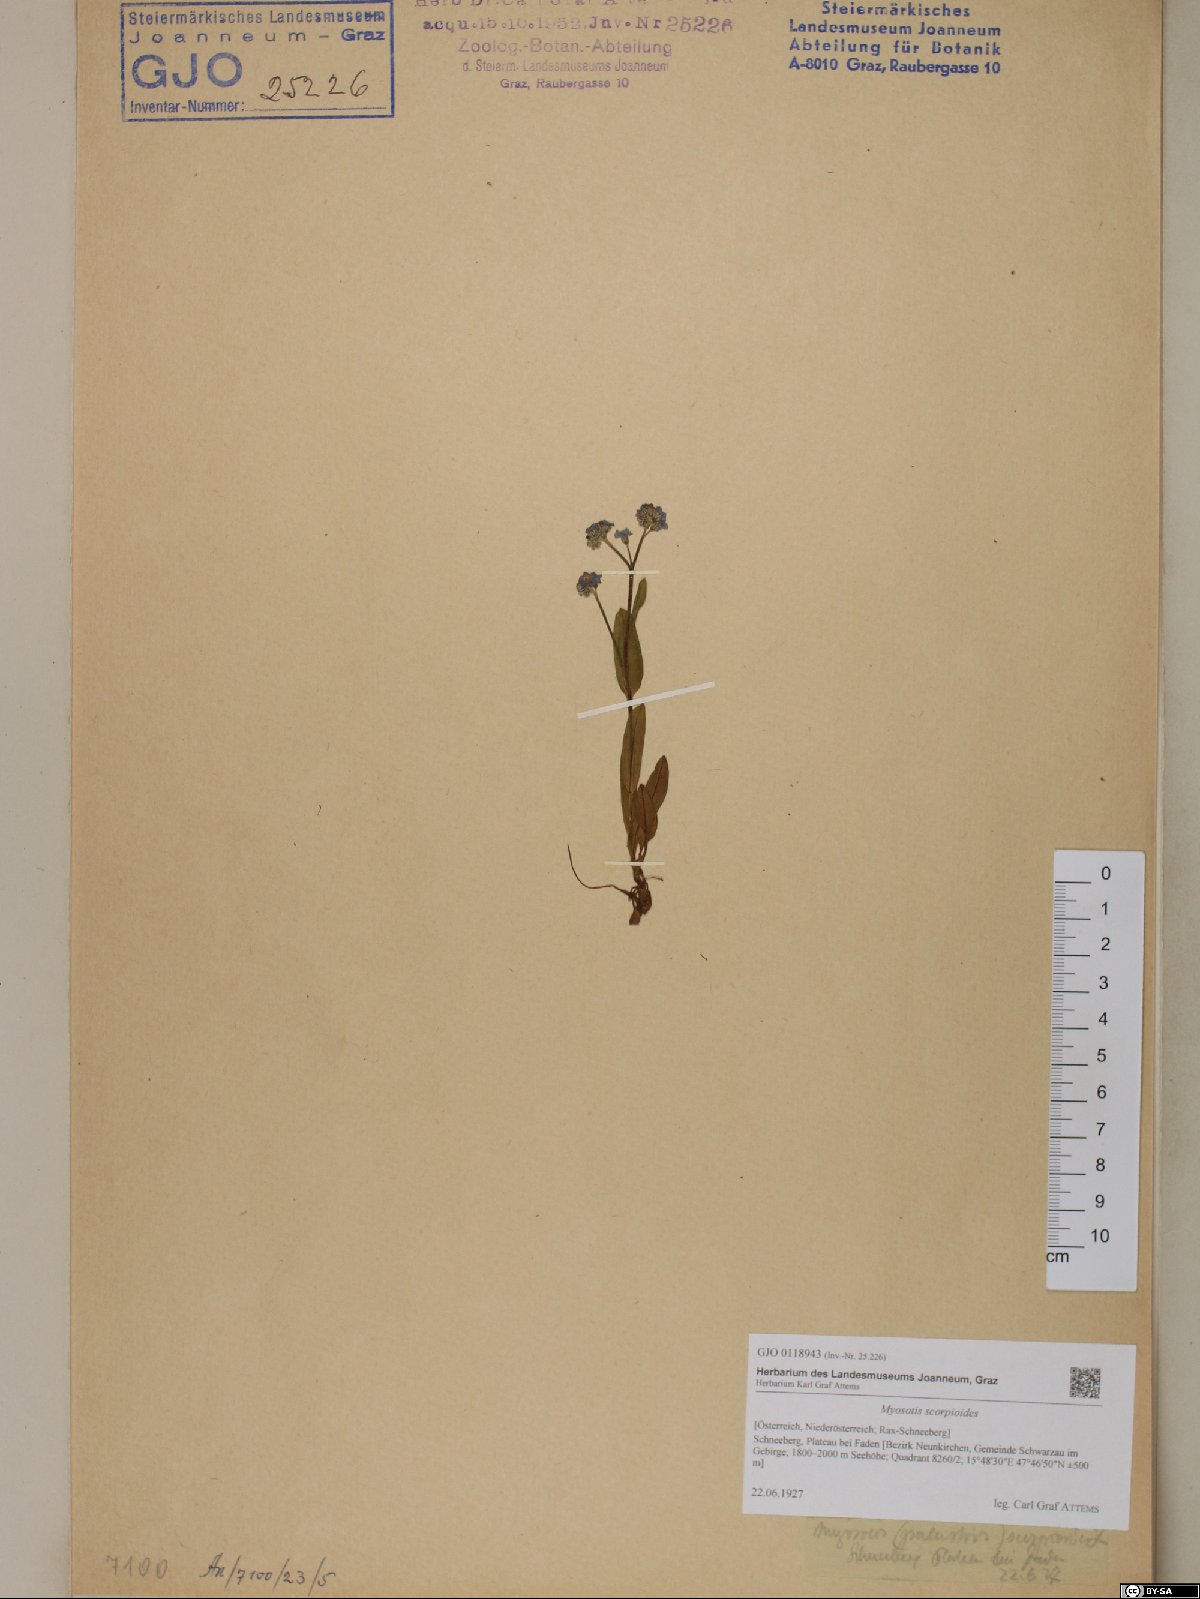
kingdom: Plantae
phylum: Tracheophyta
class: Magnoliopsida
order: Boraginales
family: Boraginaceae
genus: Myosotis
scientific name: Myosotis scorpioides
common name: Water forget-me-not
